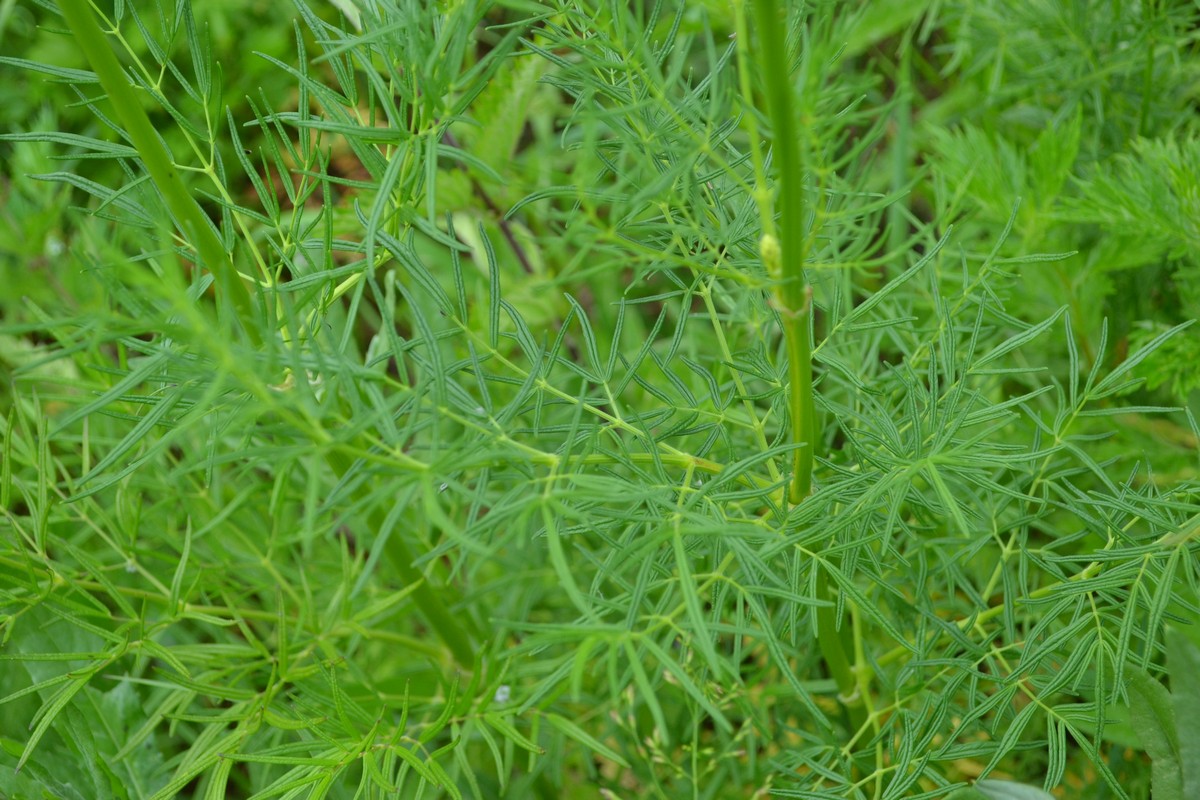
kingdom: Plantae
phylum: Tracheophyta
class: Magnoliopsida
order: Ranunculales
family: Ranunculaceae
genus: Thalictrum
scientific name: Thalictrum lucidum
